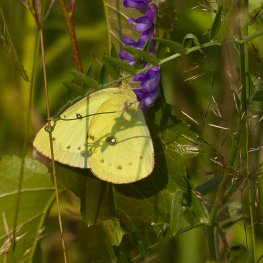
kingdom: Animalia
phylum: Arthropoda
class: Insecta
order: Lepidoptera
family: Pieridae
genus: Colias
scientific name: Colias philodice
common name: Clouded Sulphur
